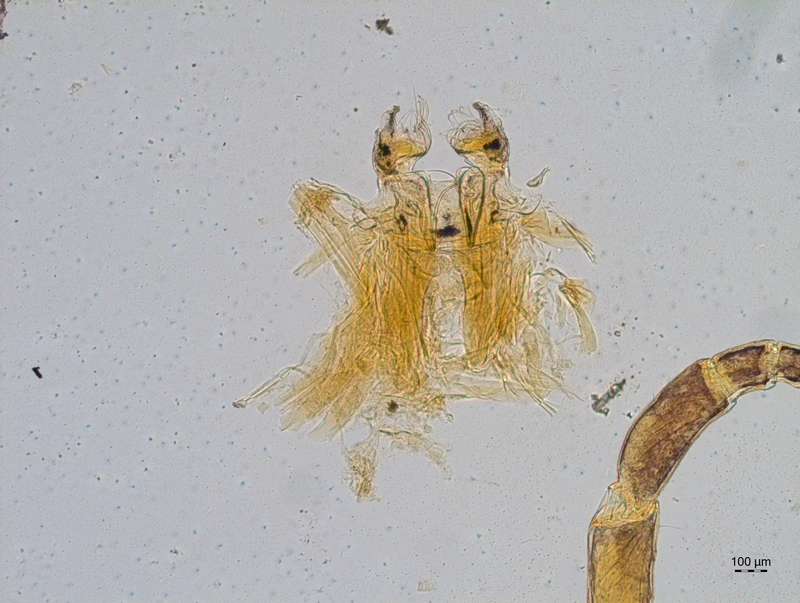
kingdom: Animalia
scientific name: Animalia
